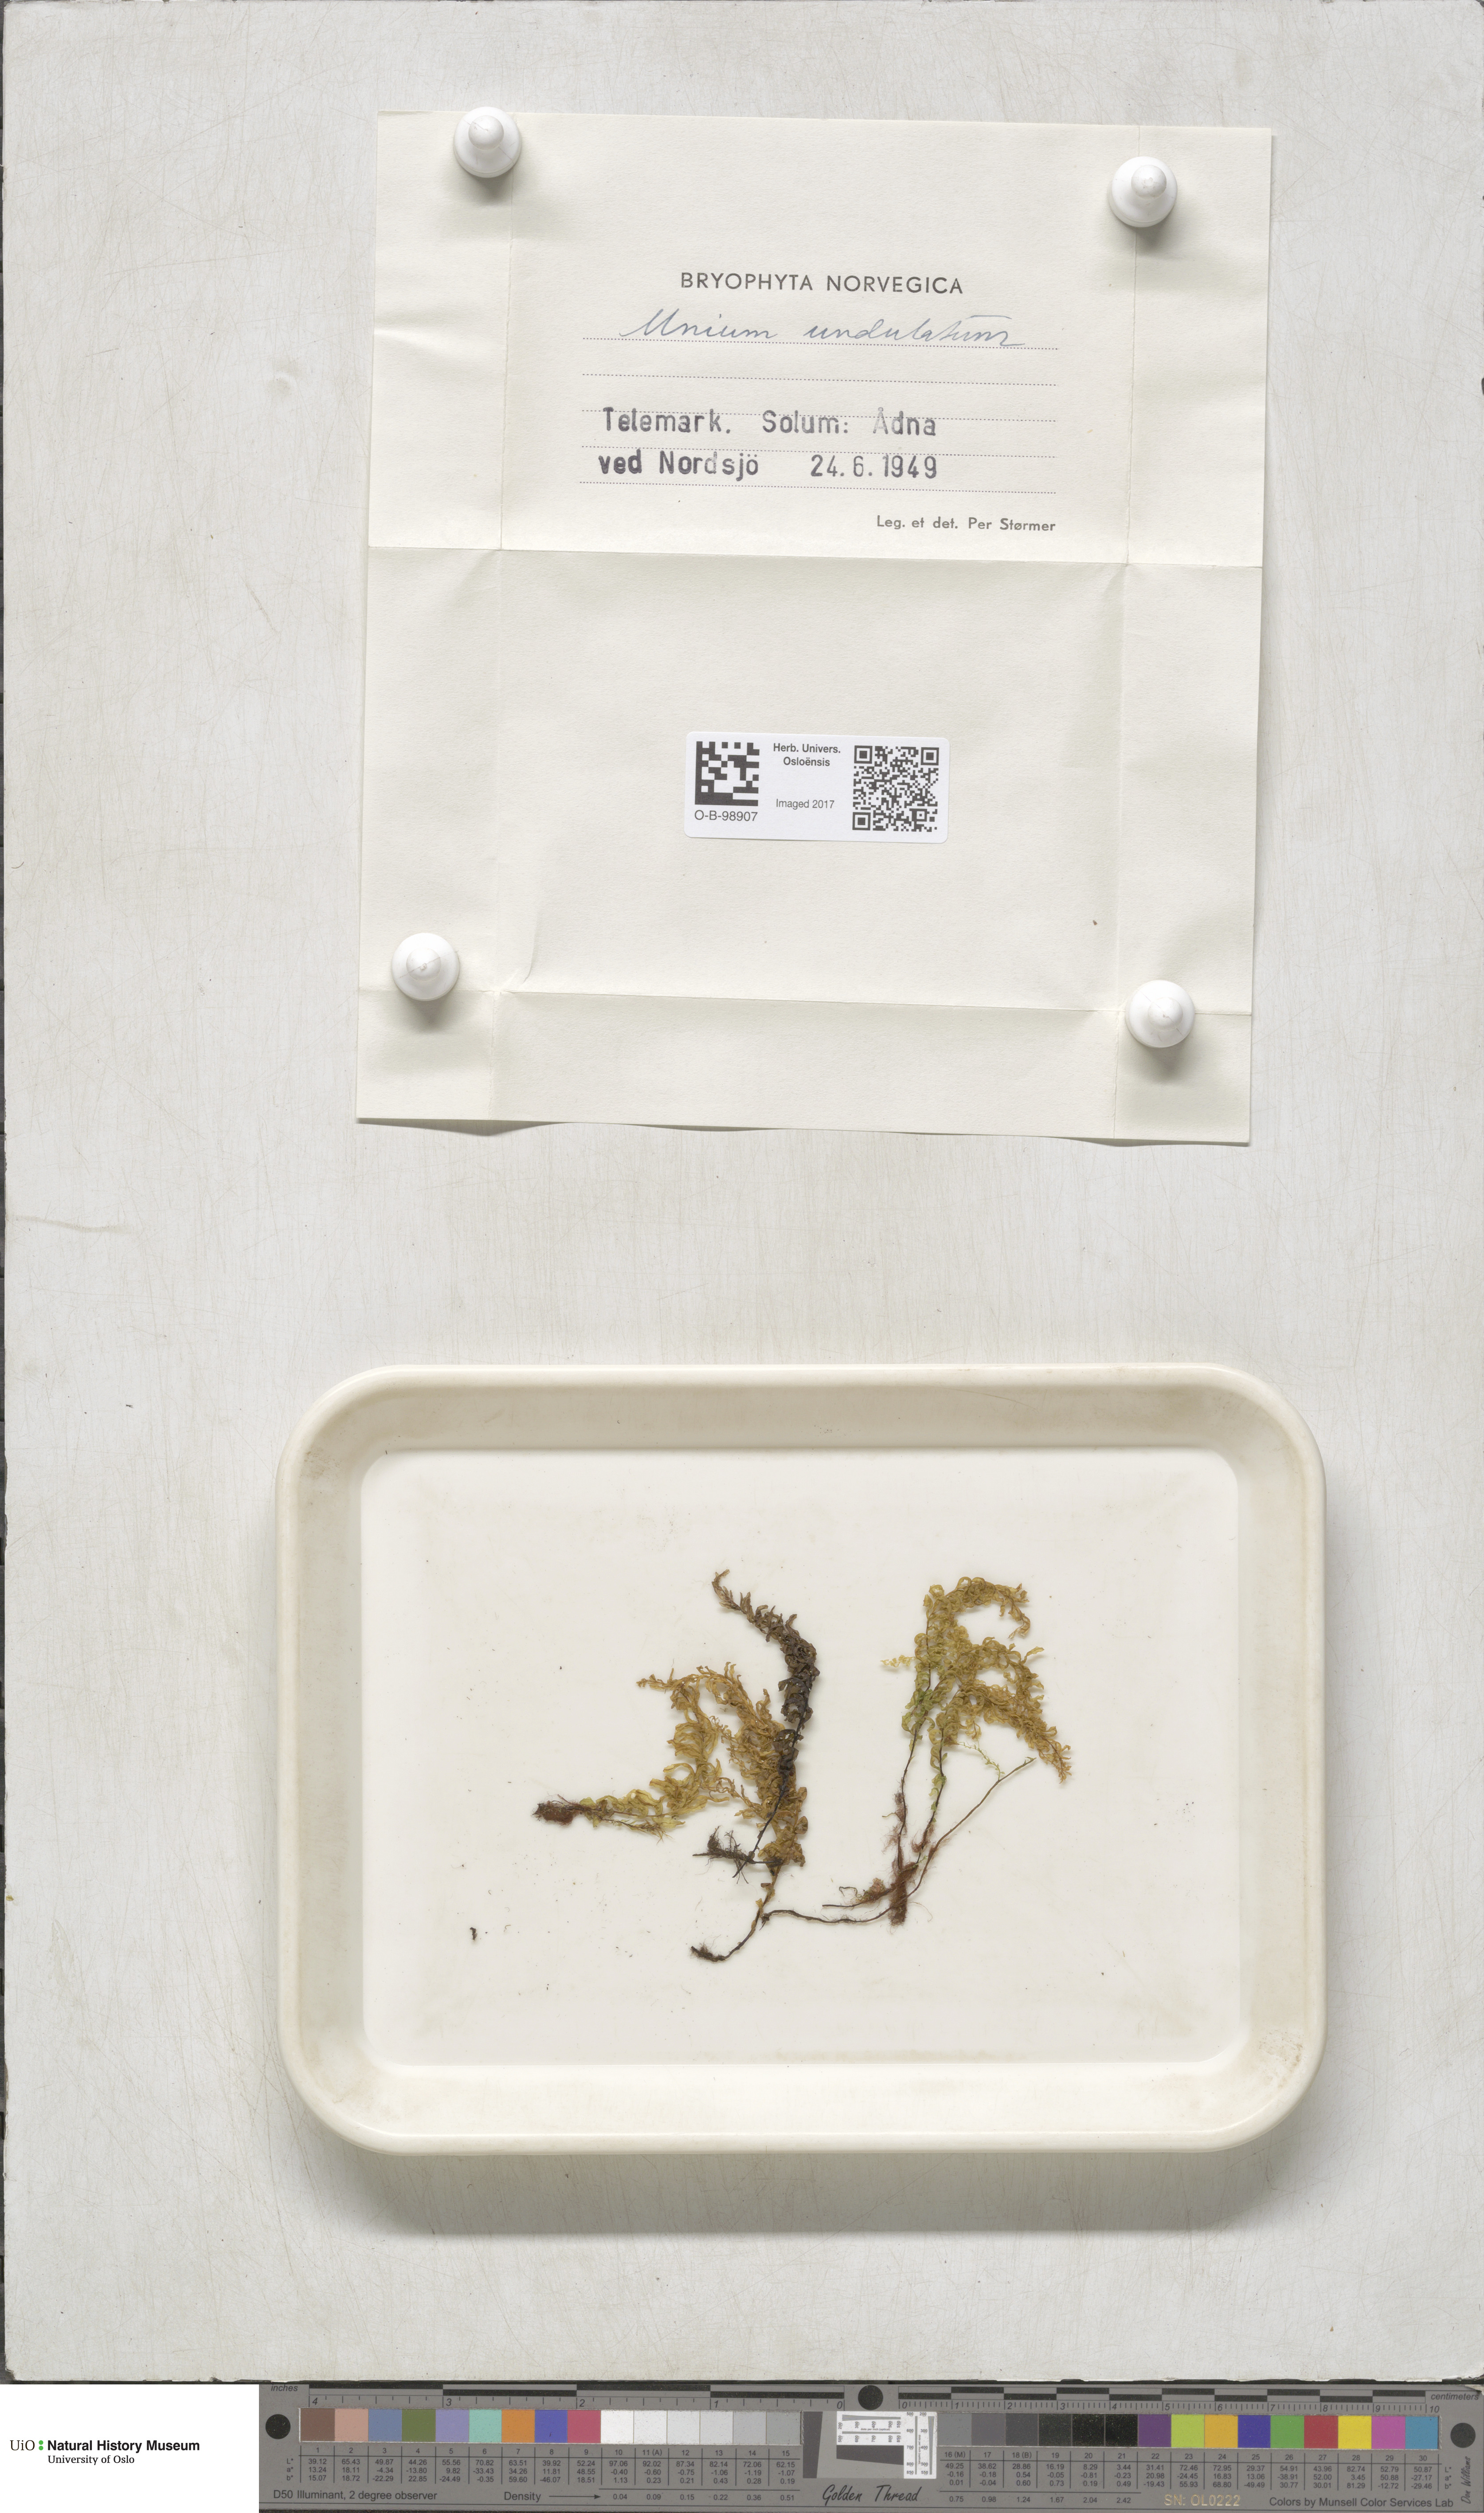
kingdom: Plantae
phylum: Bryophyta
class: Bryopsida
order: Bryales
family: Mniaceae
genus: Plagiomnium
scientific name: Plagiomnium undulatum
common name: Hart's-tongue thyme-moss
